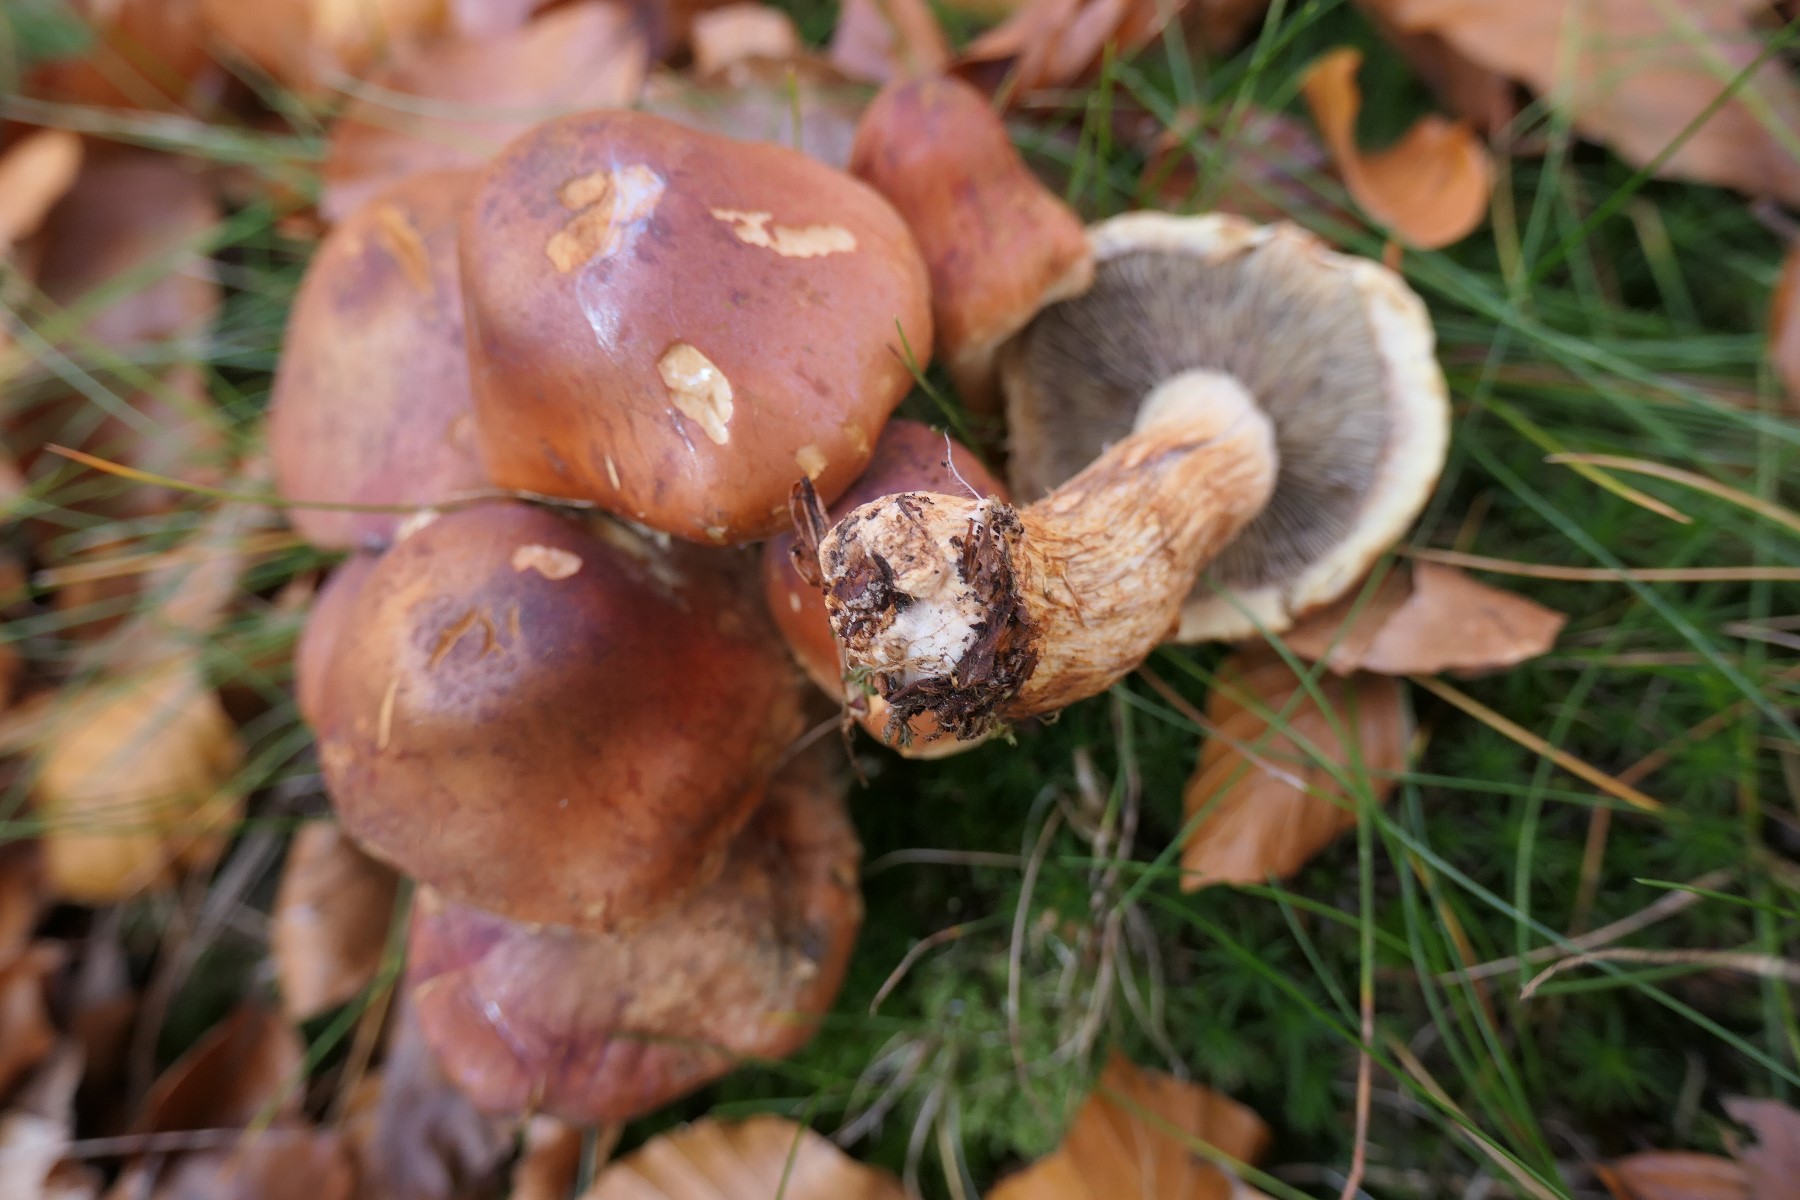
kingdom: Fungi
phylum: Basidiomycota
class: Agaricomycetes
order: Agaricales
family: Strophariaceae
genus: Hypholoma
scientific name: Hypholoma lateritium
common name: teglrød svovlhat
